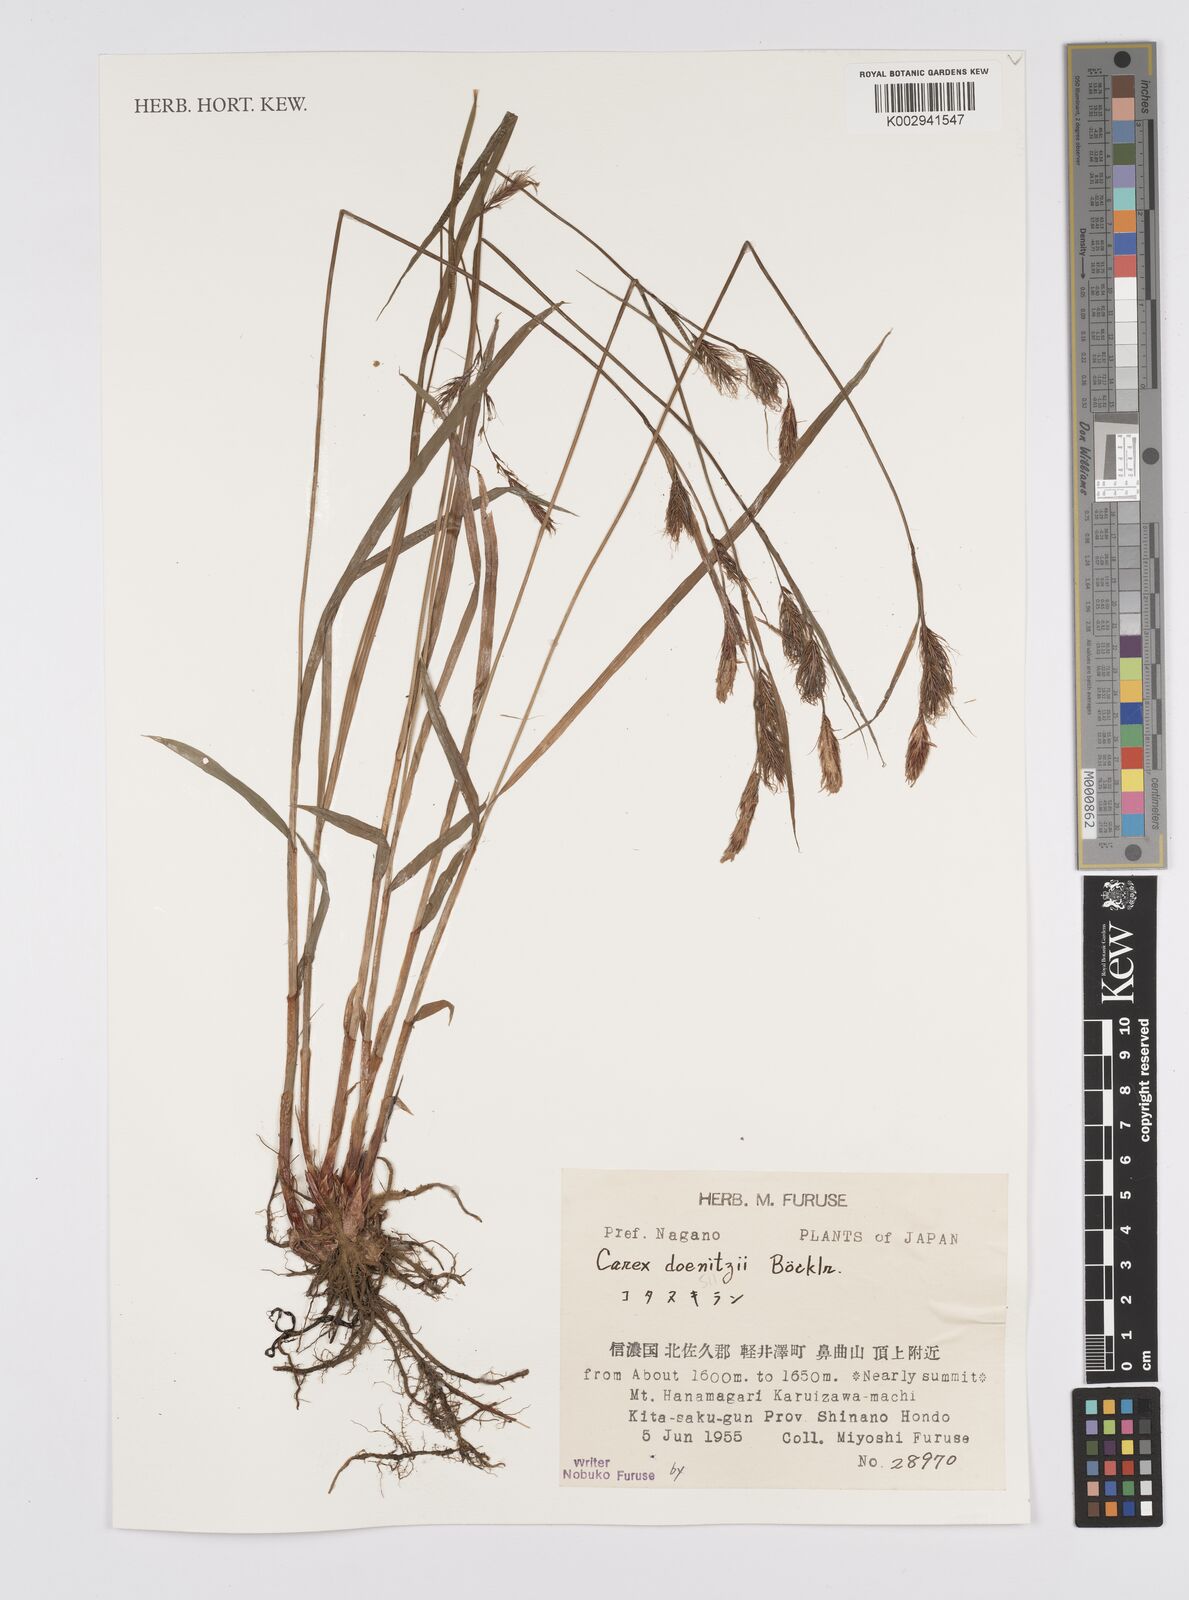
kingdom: Plantae
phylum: Tracheophyta
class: Liliopsida
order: Poales
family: Cyperaceae
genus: Carex
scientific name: Carex doenitzii
